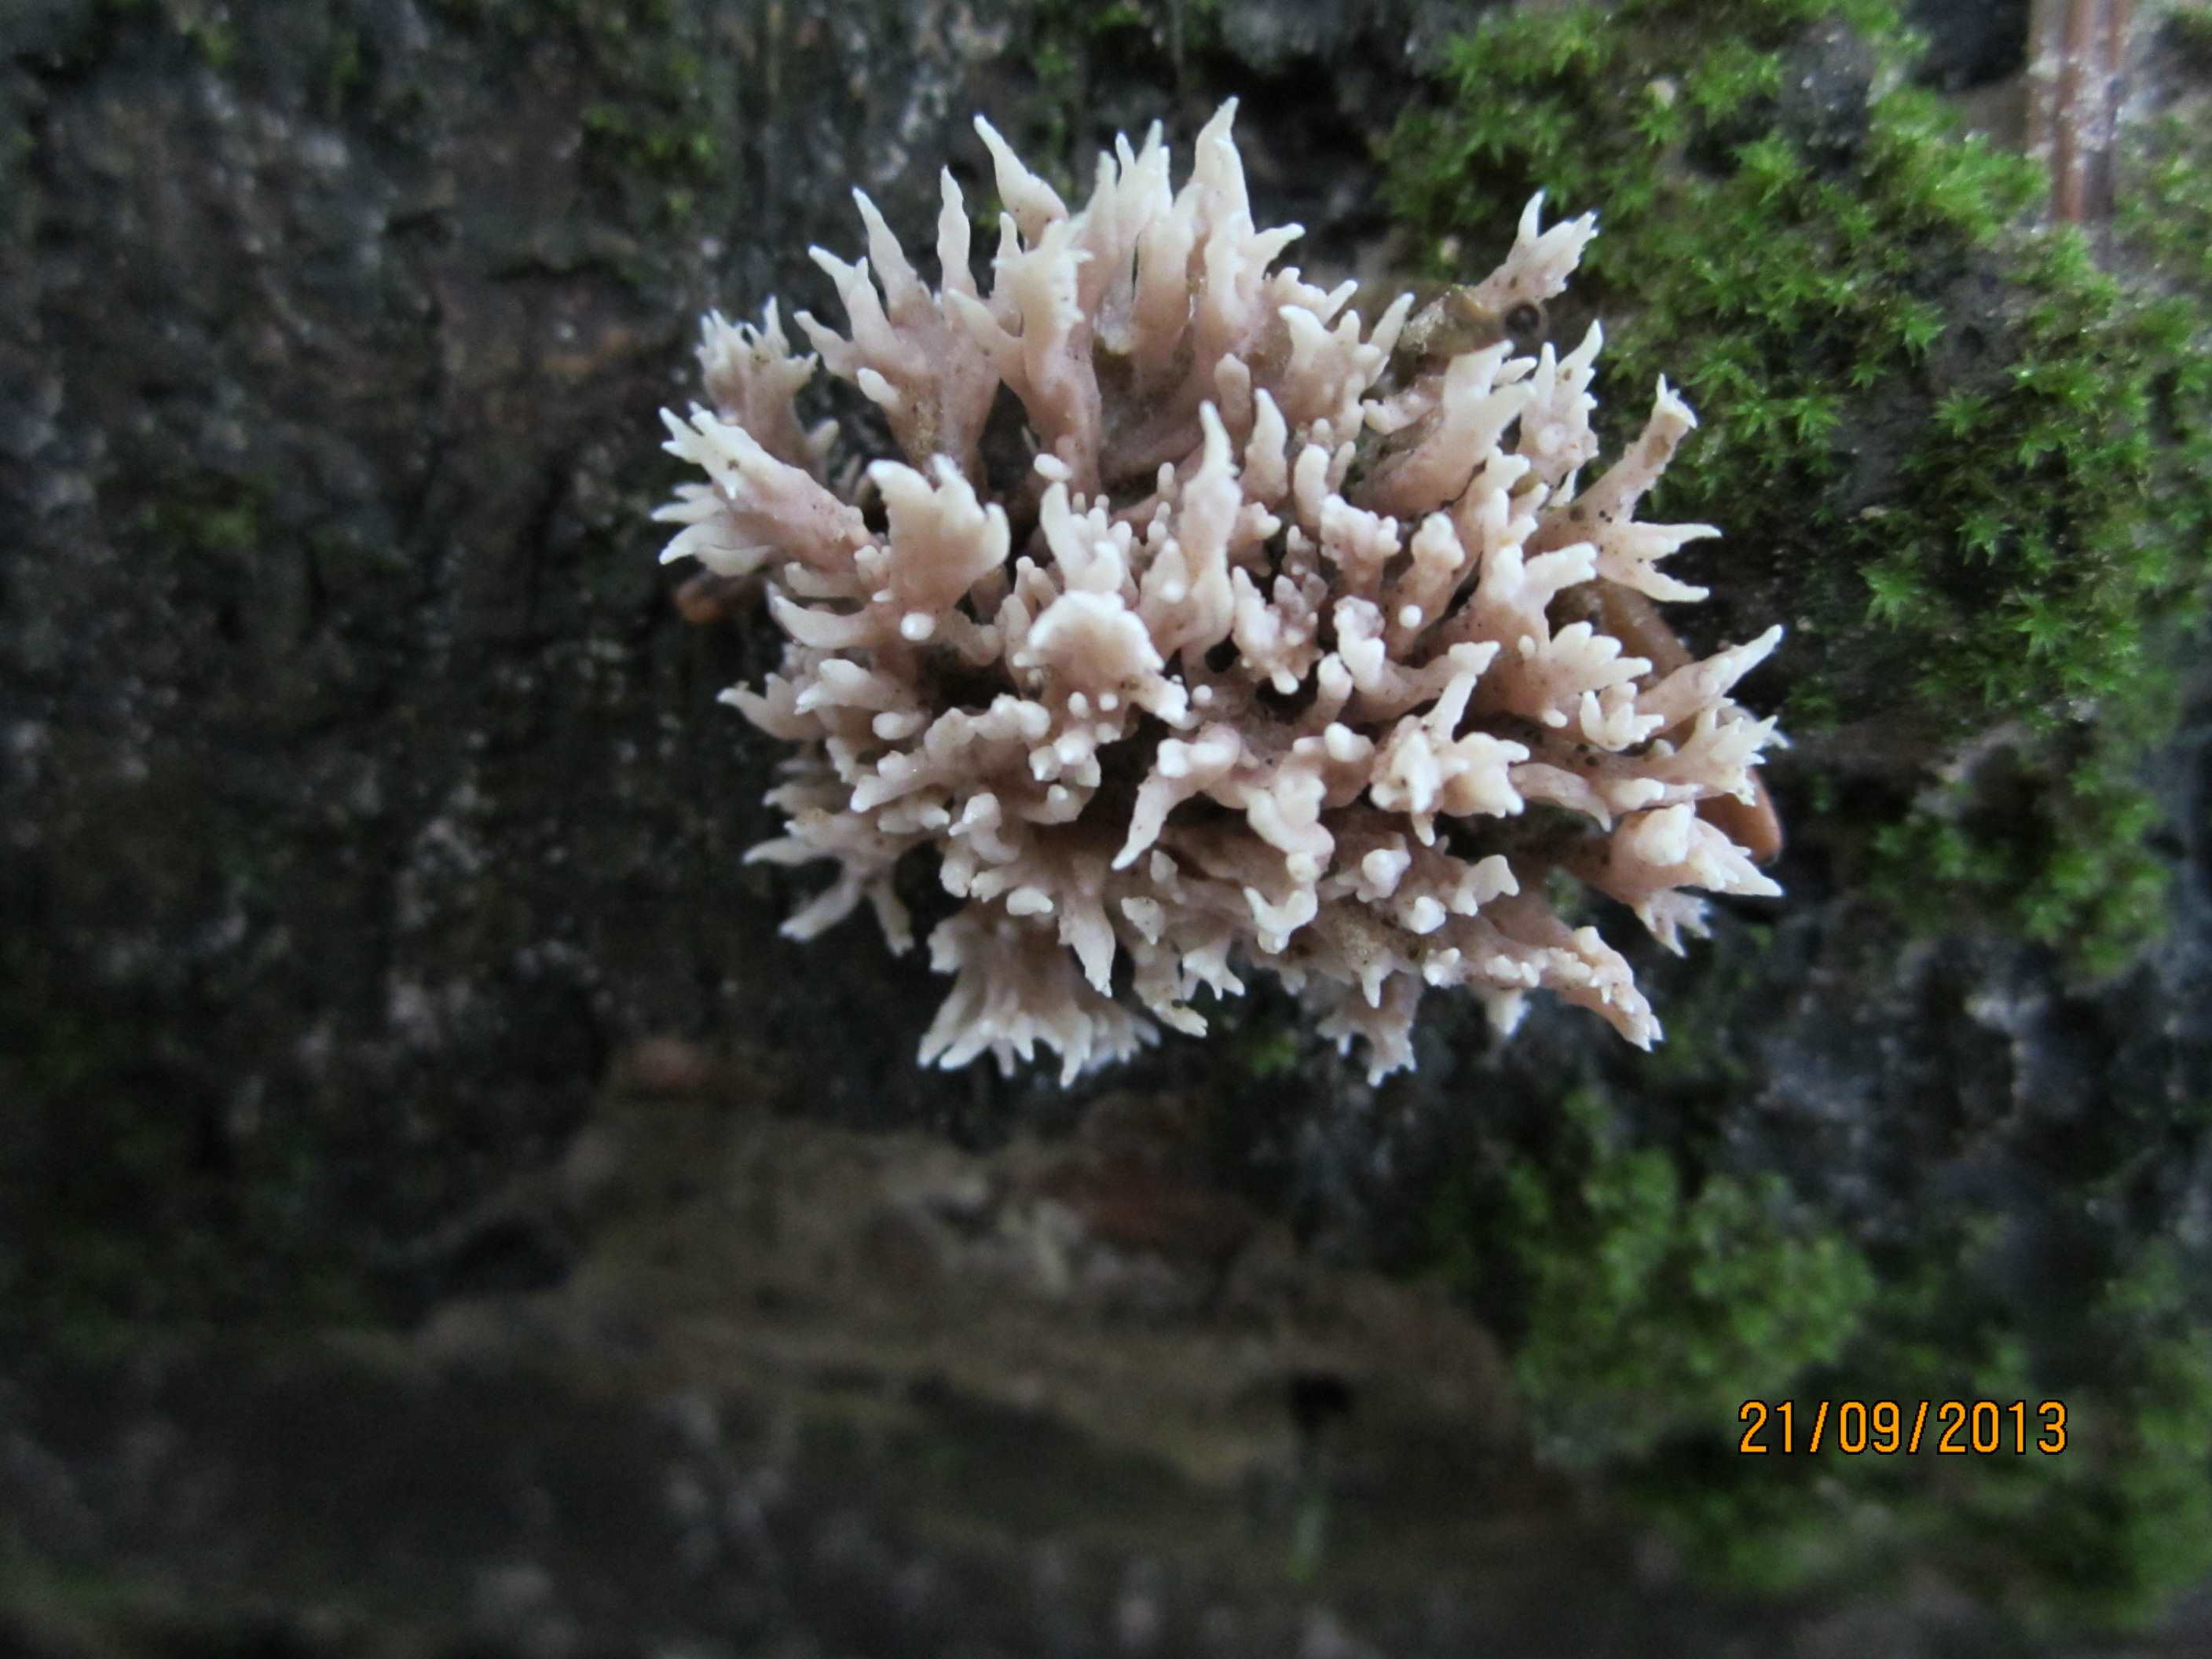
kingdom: Fungi
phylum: Basidiomycota
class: Agaricomycetes
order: Gomphales
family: Lentariaceae
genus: Lentaria
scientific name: Lentaria byssiseda
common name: kødfarvet grenkølle
